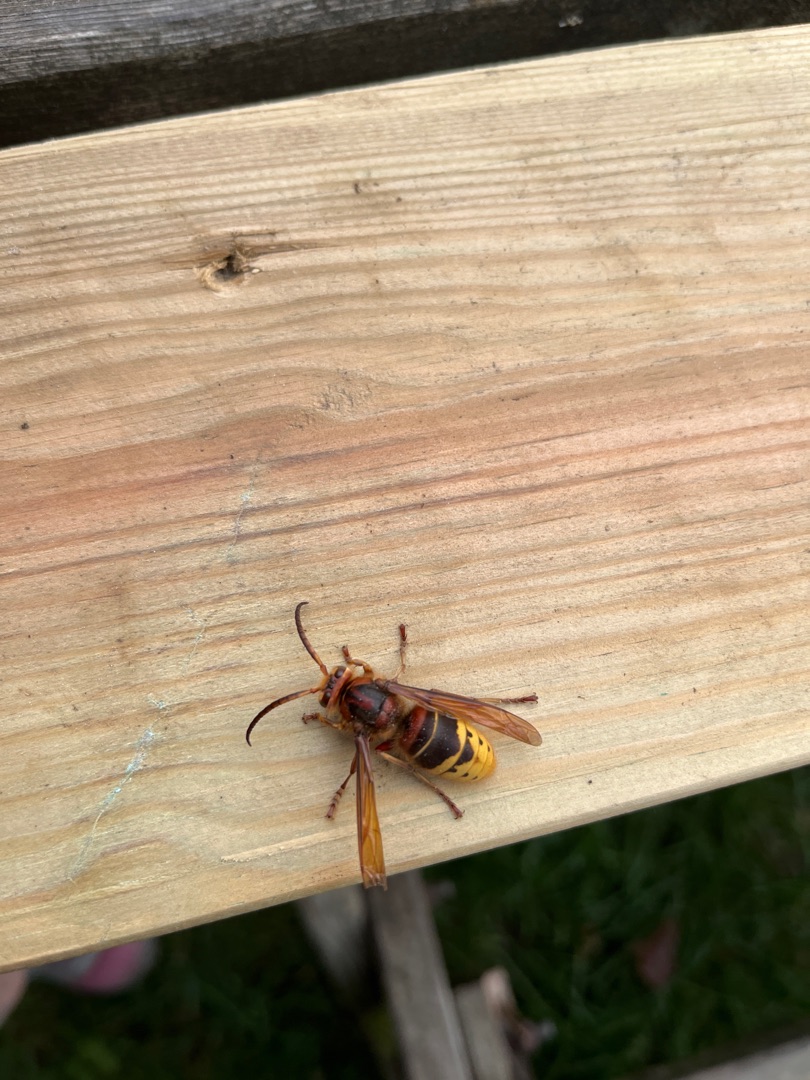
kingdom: Animalia
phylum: Arthropoda
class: Insecta
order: Hymenoptera
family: Vespidae
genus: Vespa
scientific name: Vespa crabro
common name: Stor gedehams
